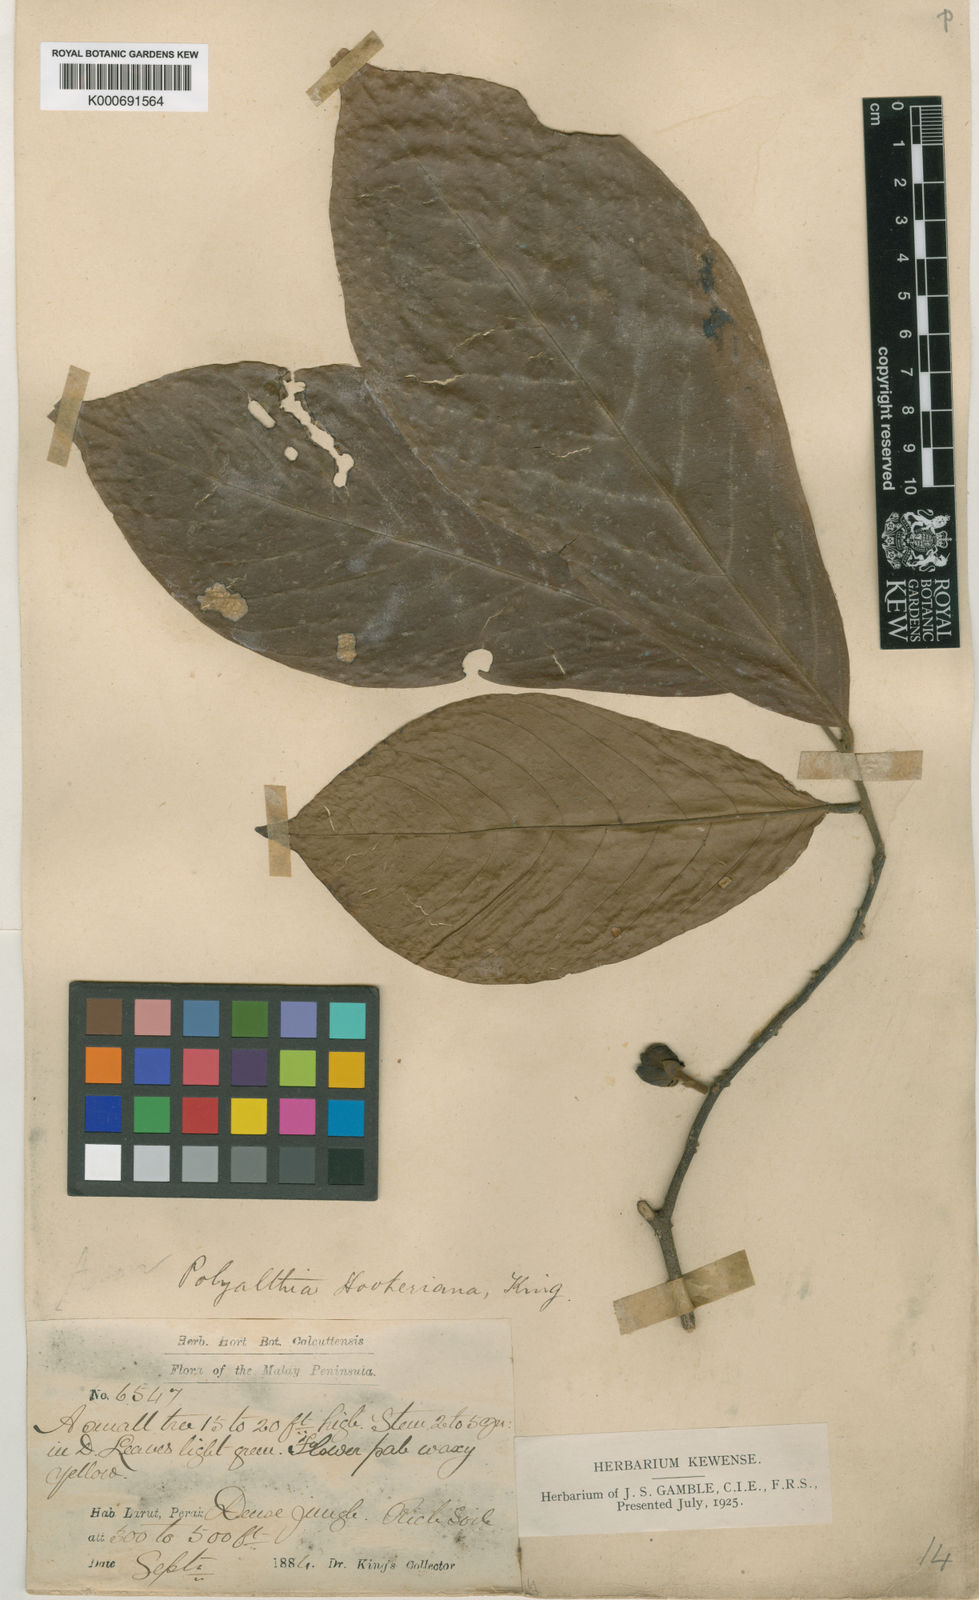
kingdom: Plantae
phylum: Tracheophyta
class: Magnoliopsida
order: Magnoliales
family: Annonaceae
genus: Polyalthia
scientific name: Polyalthia hookeriana
